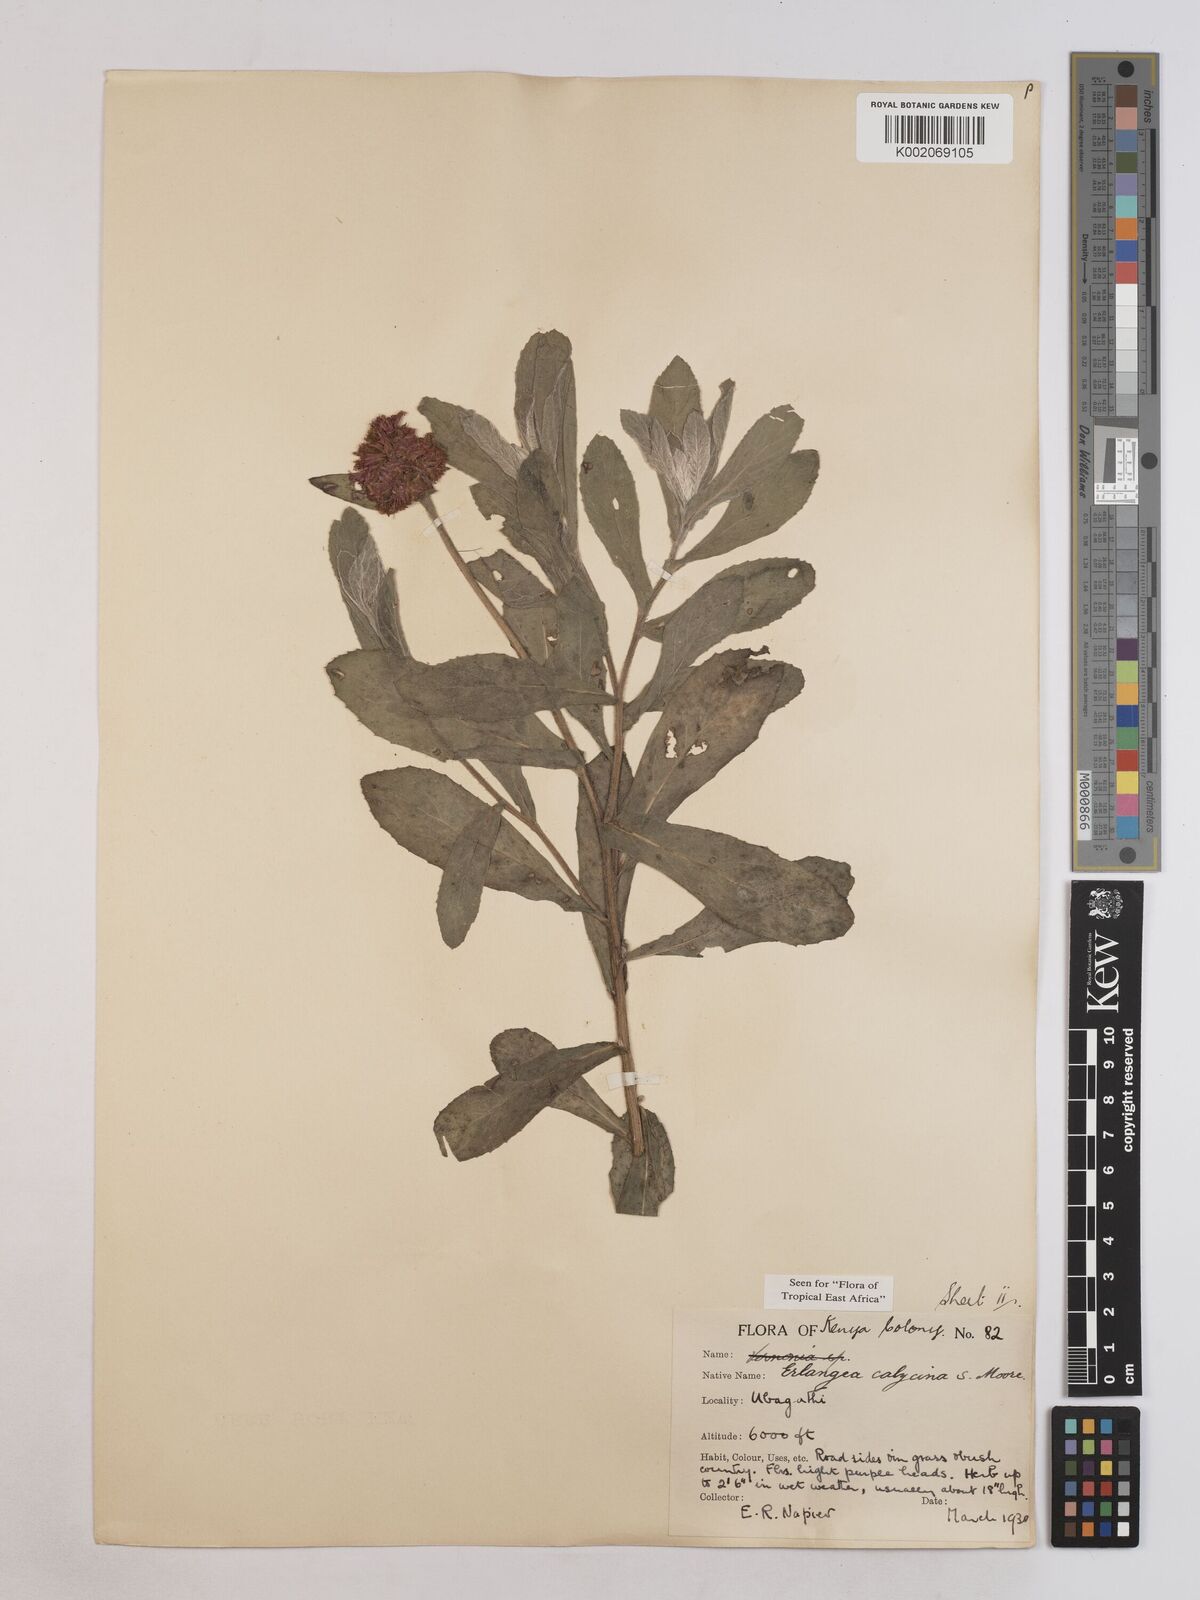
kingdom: Plantae
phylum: Tracheophyta
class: Magnoliopsida
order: Asterales
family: Asteraceae
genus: Erlangea
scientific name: Erlangea calycina
